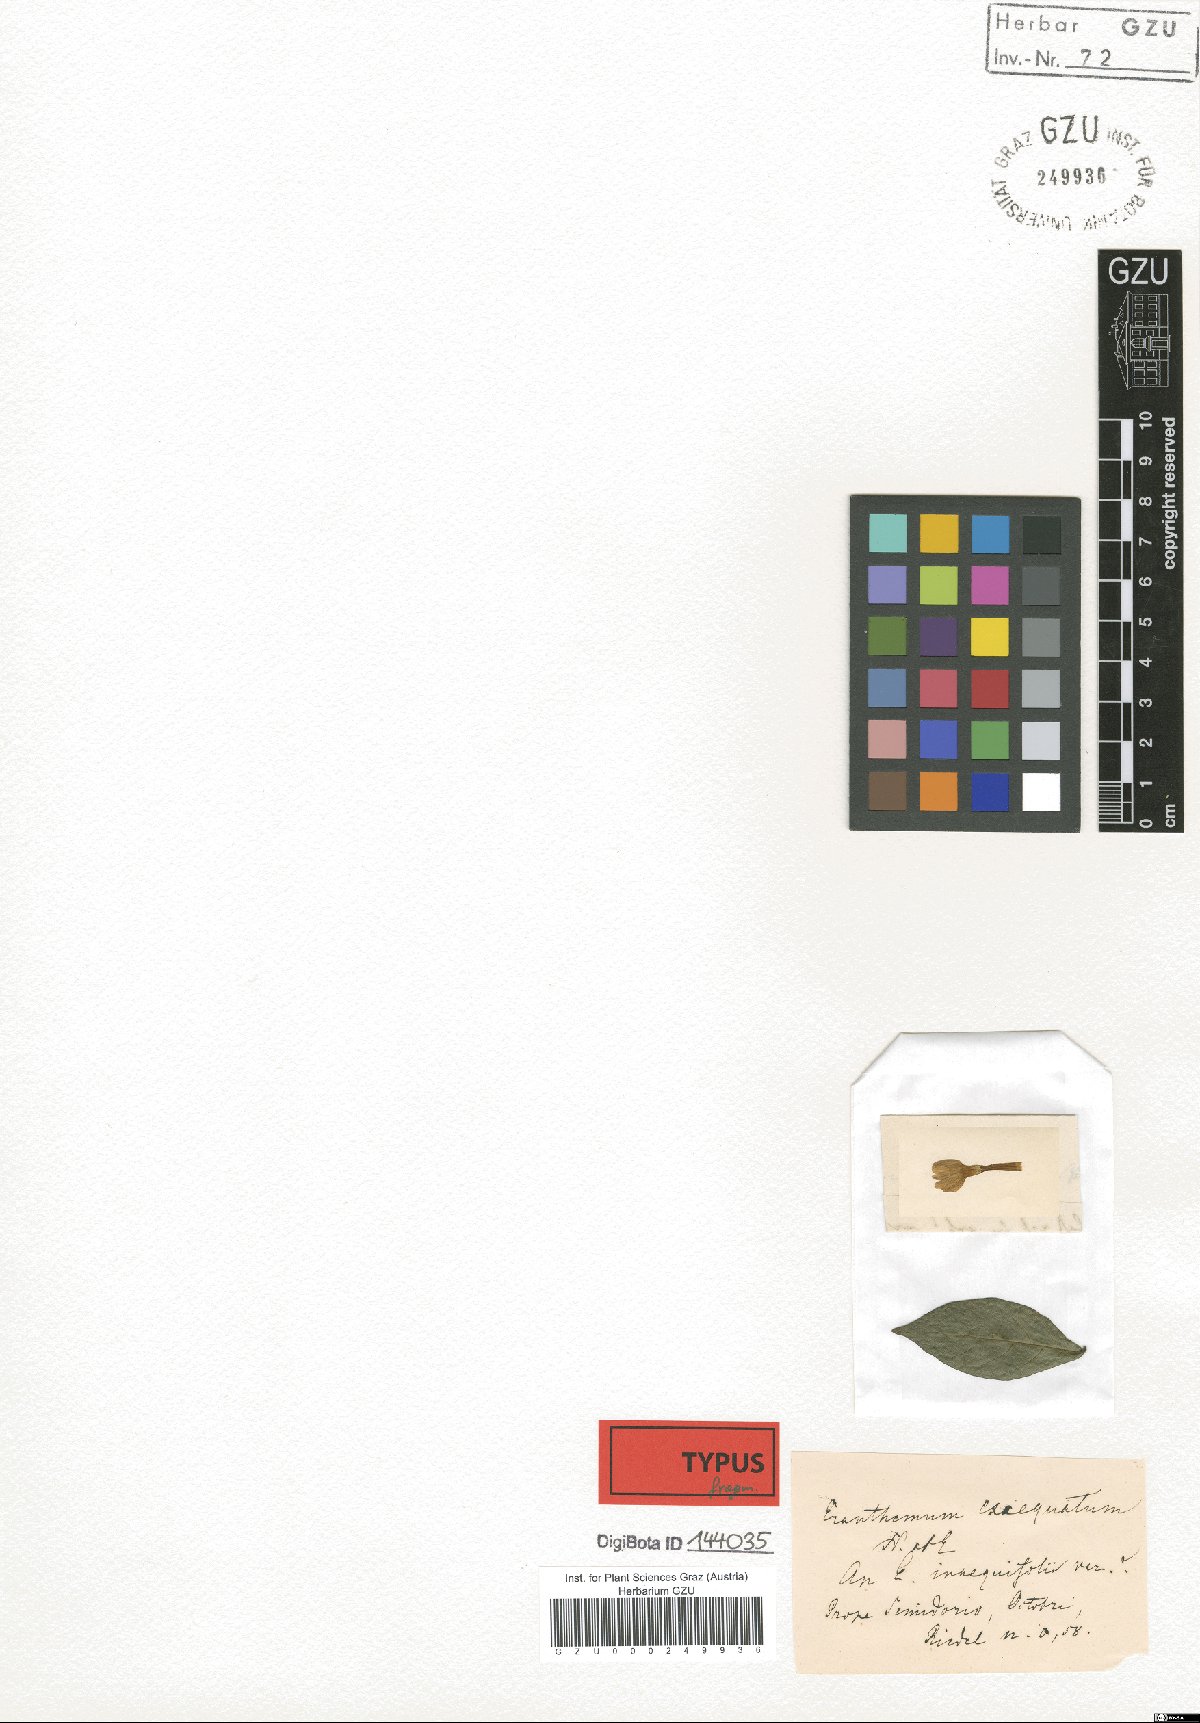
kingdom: Plantae
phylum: Tracheophyta
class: Magnoliopsida
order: Lamiales
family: Acanthaceae
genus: Pseuderanthemum
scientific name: Pseuderanthemum exaequatum
